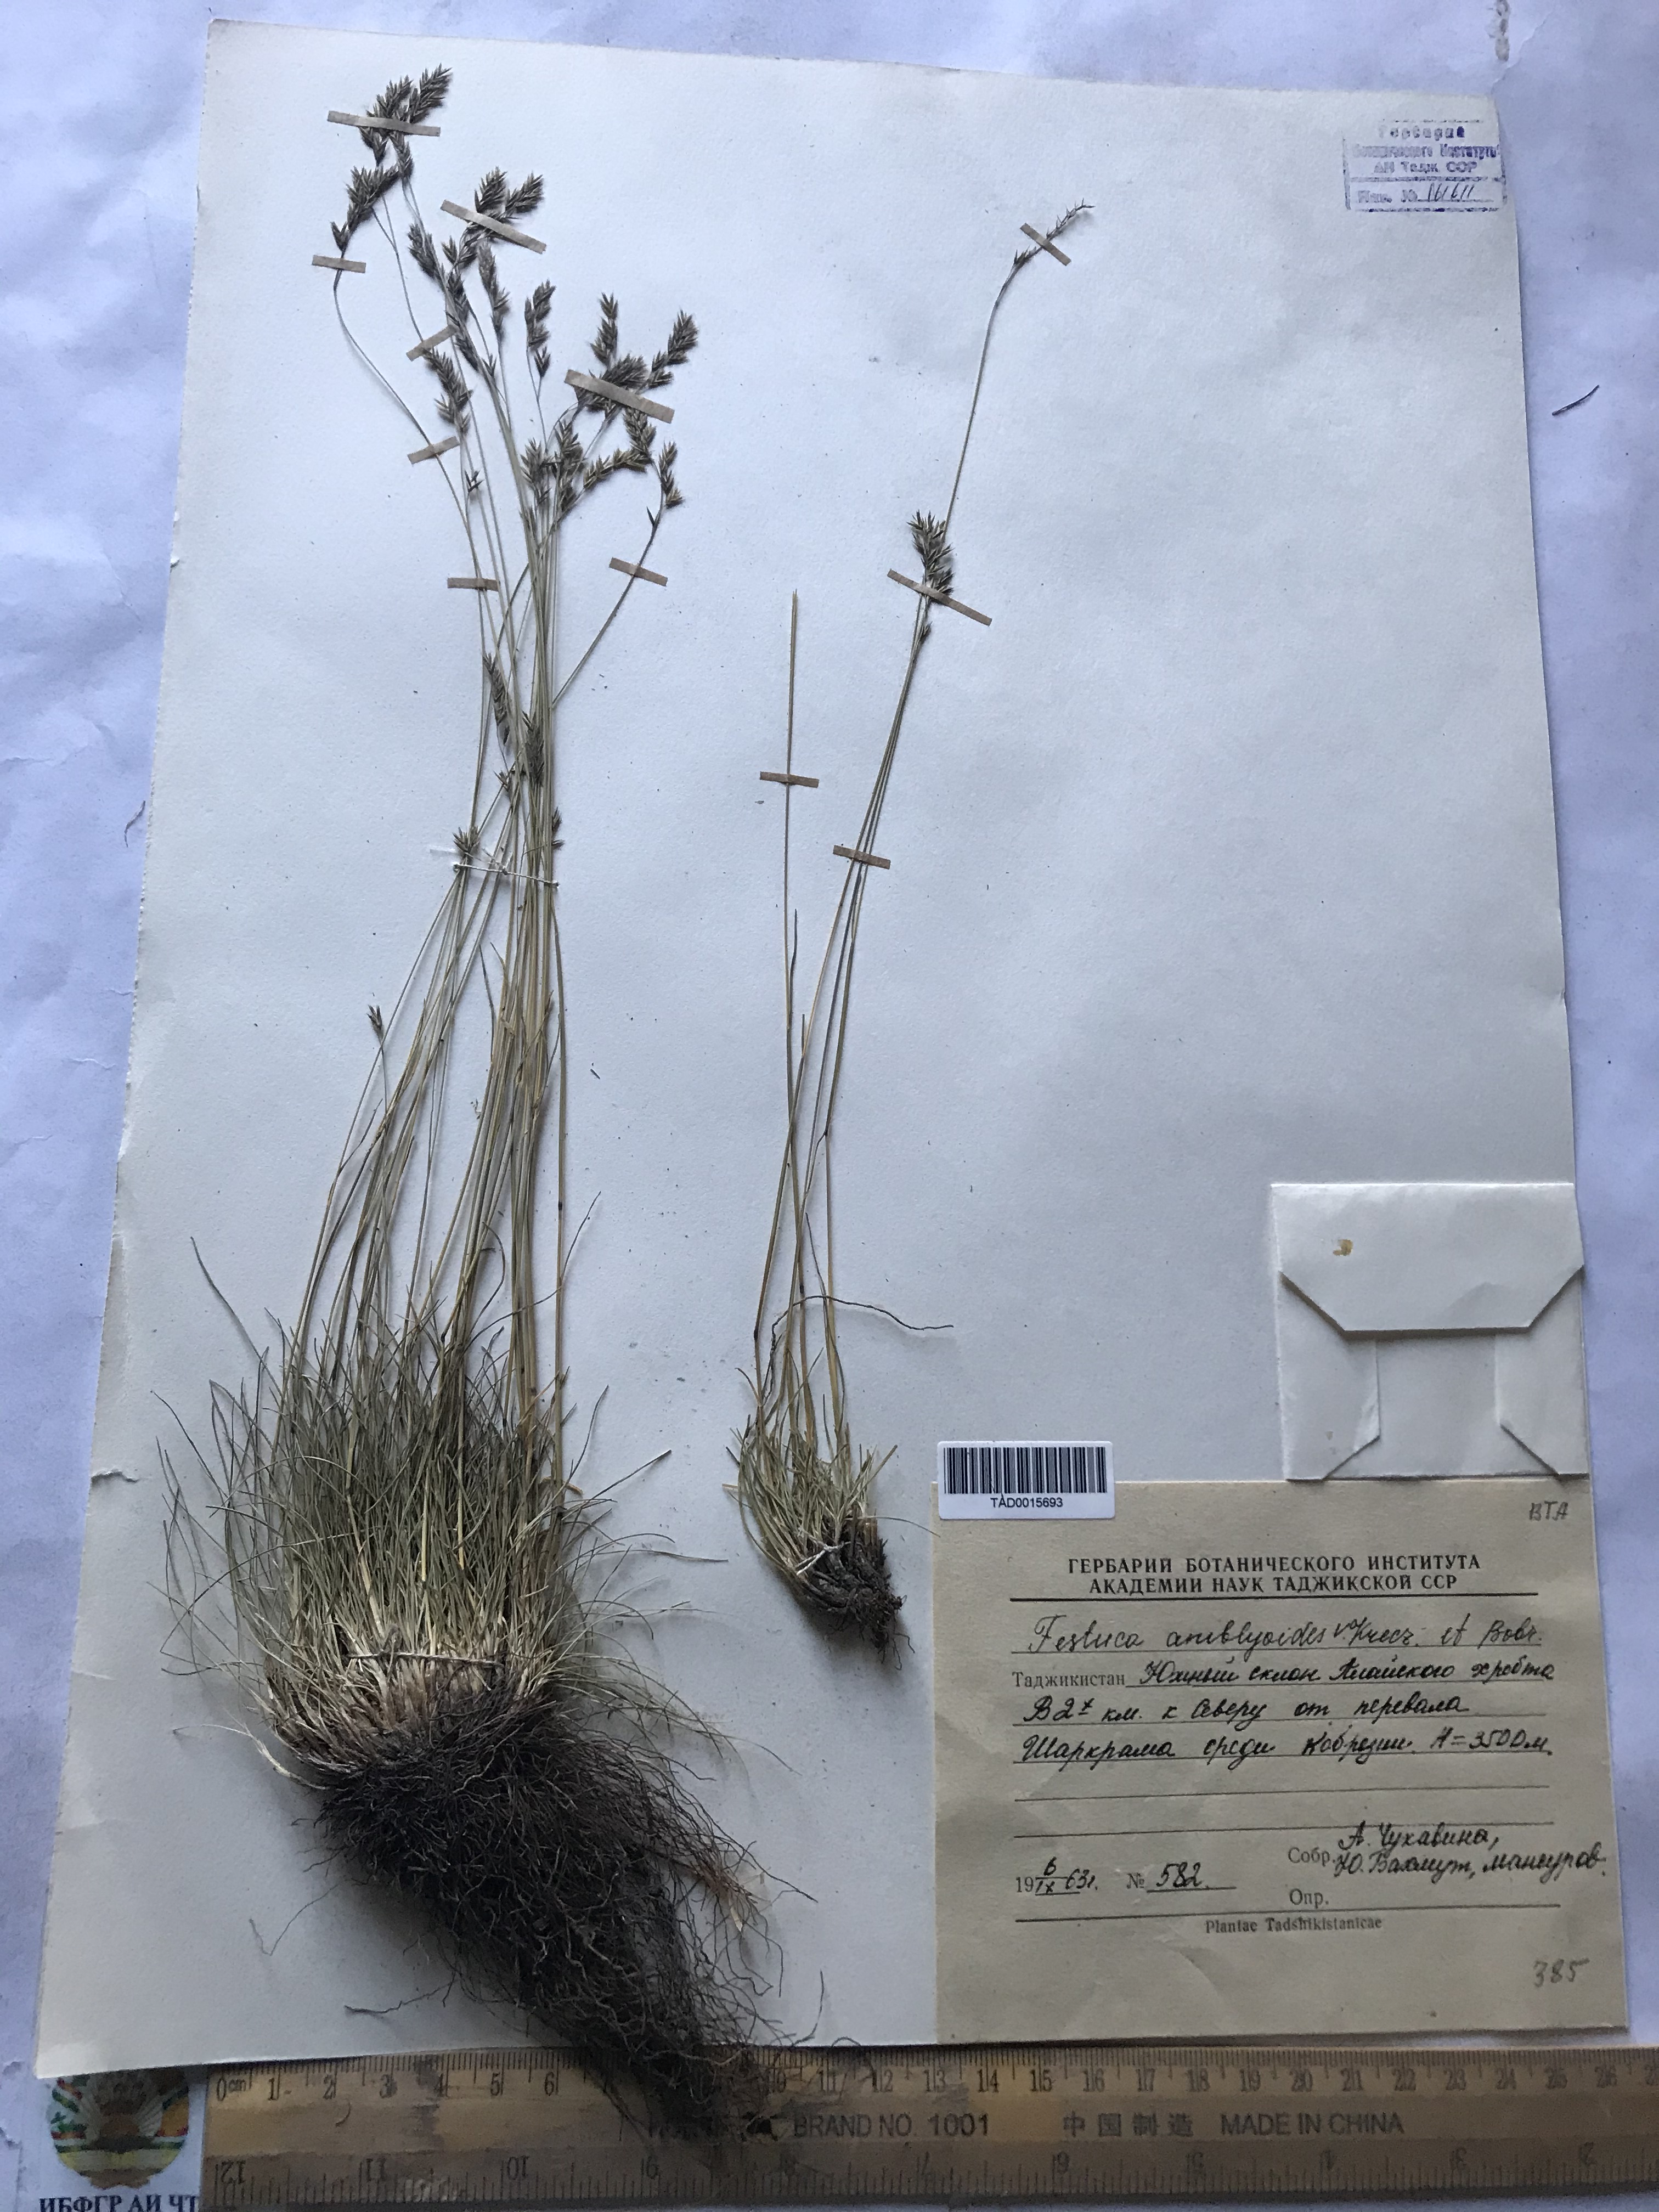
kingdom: Plantae
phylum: Tracheophyta
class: Liliopsida
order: Poales
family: Poaceae
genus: Festuca
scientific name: Festuca amblyodes
